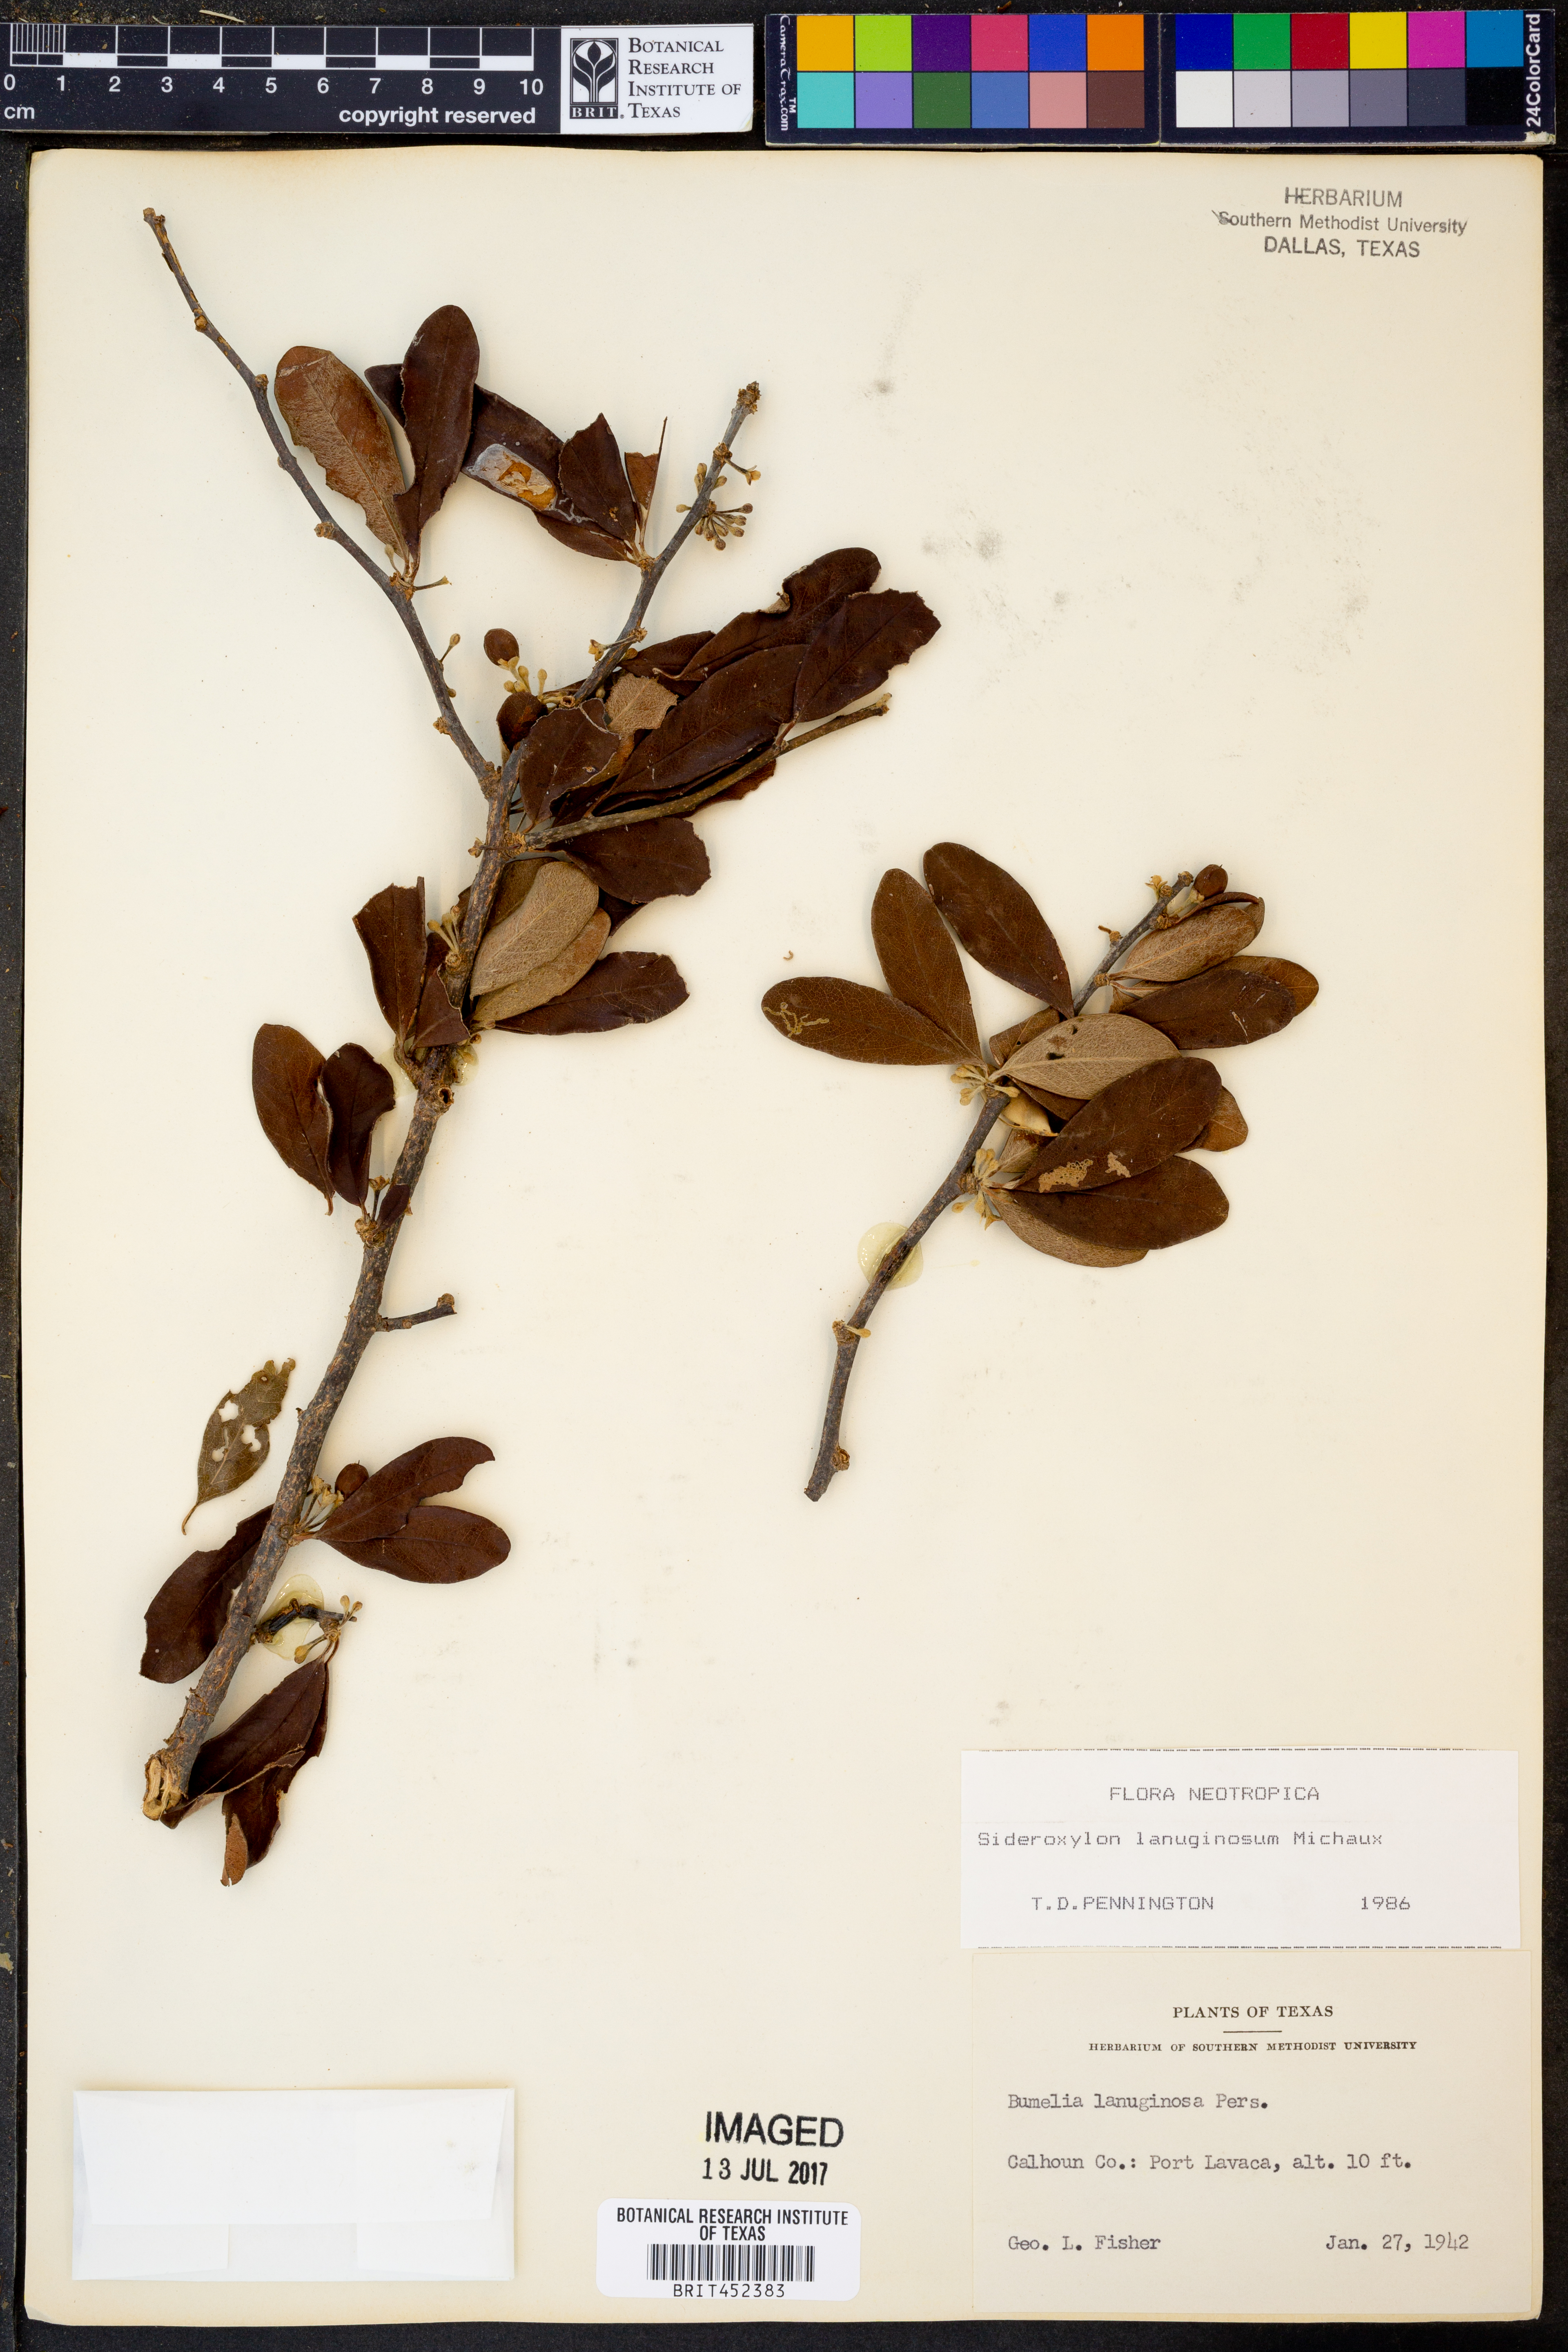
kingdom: Plantae
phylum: Tracheophyta
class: Magnoliopsida
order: Ericales
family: Sapotaceae
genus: Sideroxylon
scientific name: Sideroxylon lanuginosum
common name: Chittamwood
